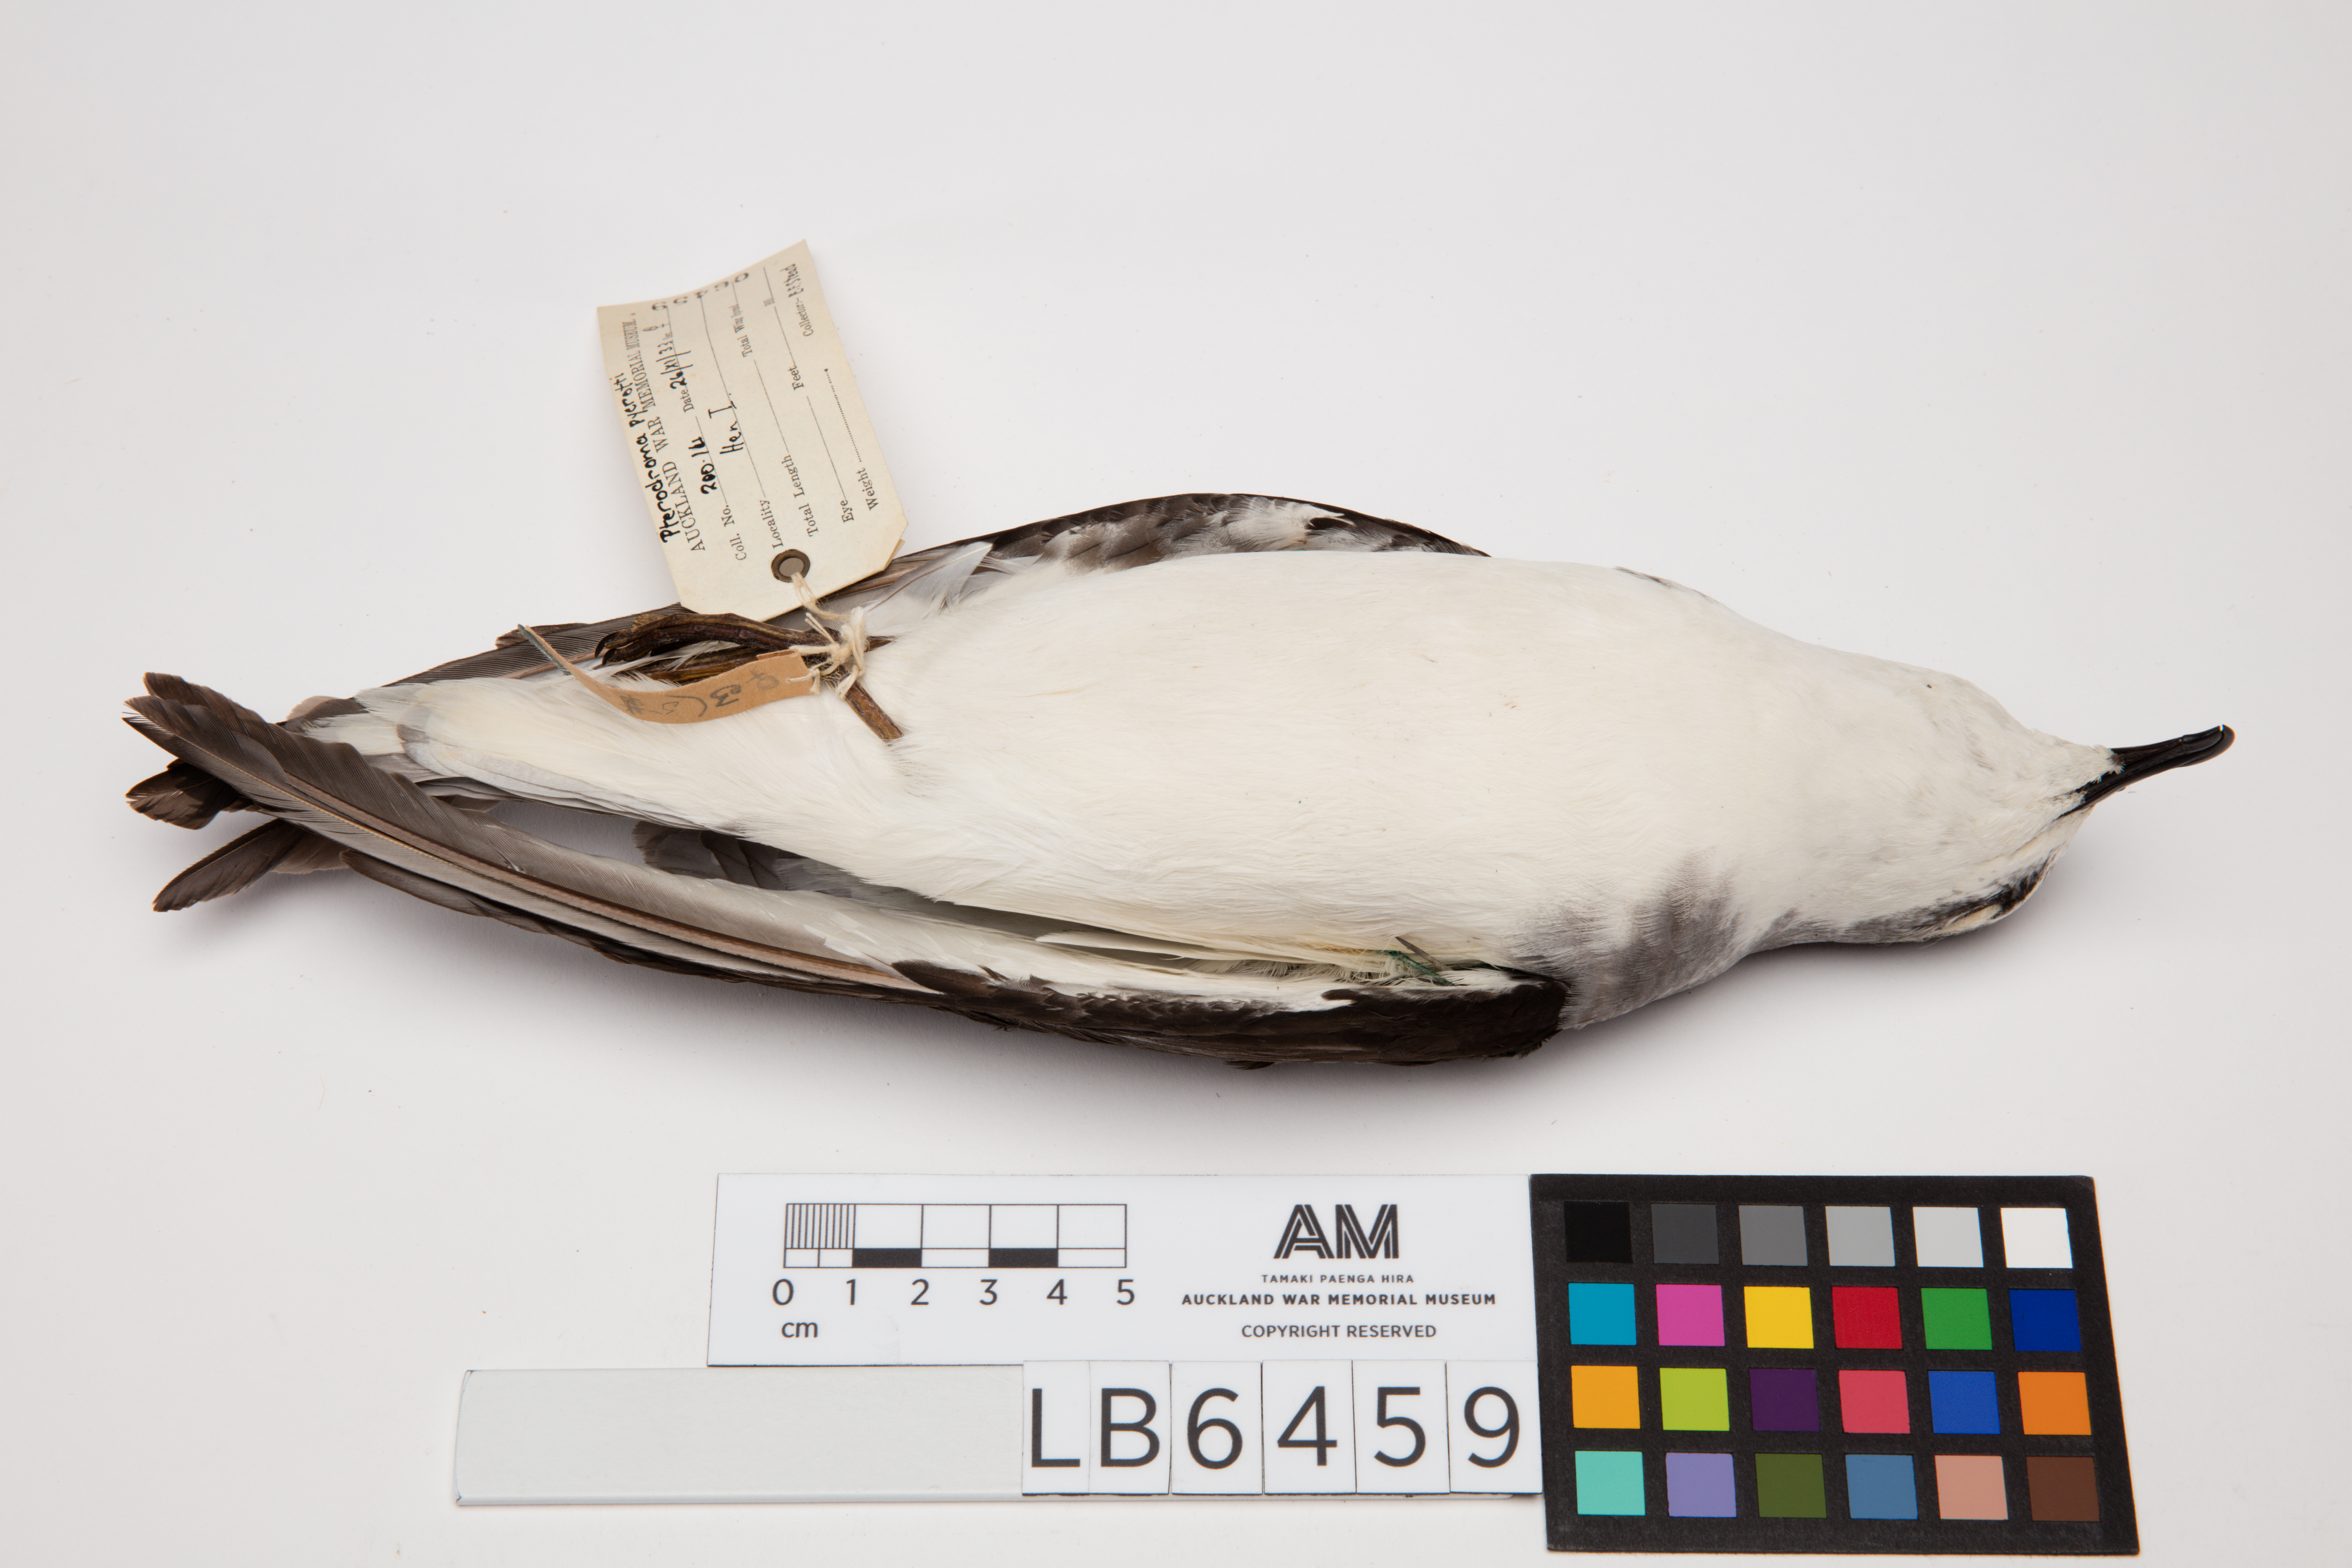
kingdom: Animalia
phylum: Chordata
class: Aves
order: Procellariiformes
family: Procellariidae
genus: Pterodroma
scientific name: Pterodroma pycrofti
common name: Pycroft's petrel
